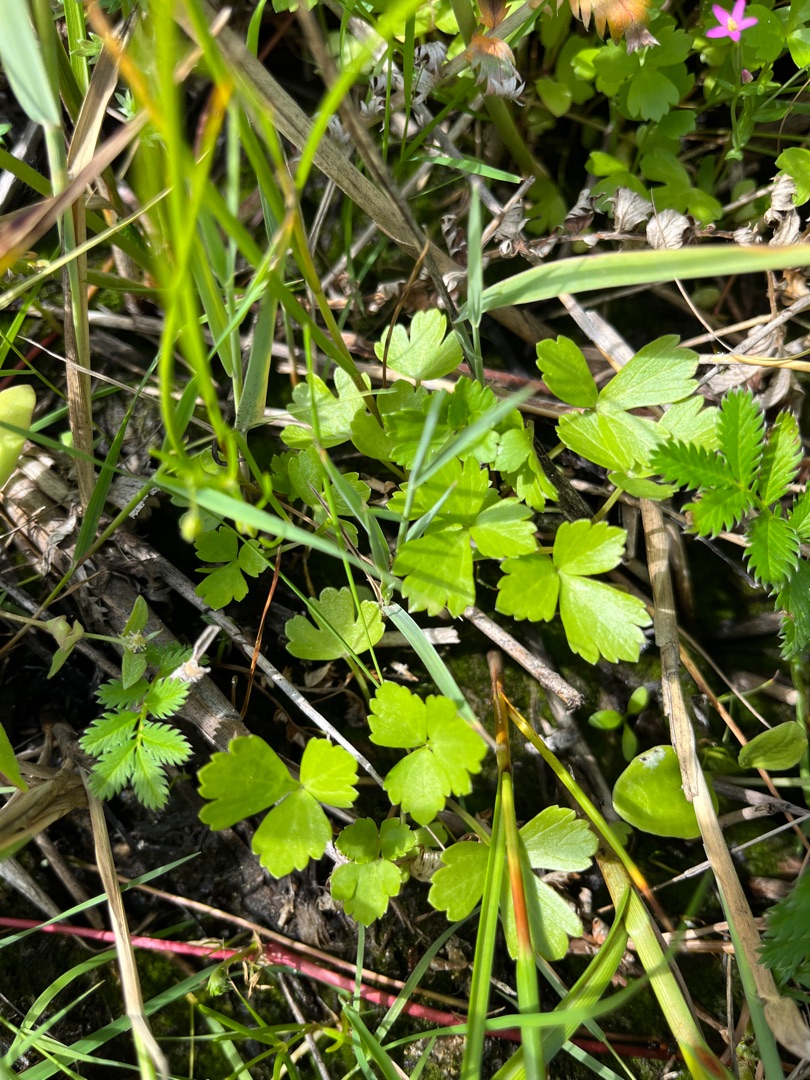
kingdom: Plantae
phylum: Tracheophyta
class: Magnoliopsida
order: Apiales
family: Apiaceae
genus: Apium
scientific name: Apium graveolens
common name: Vild selleri
